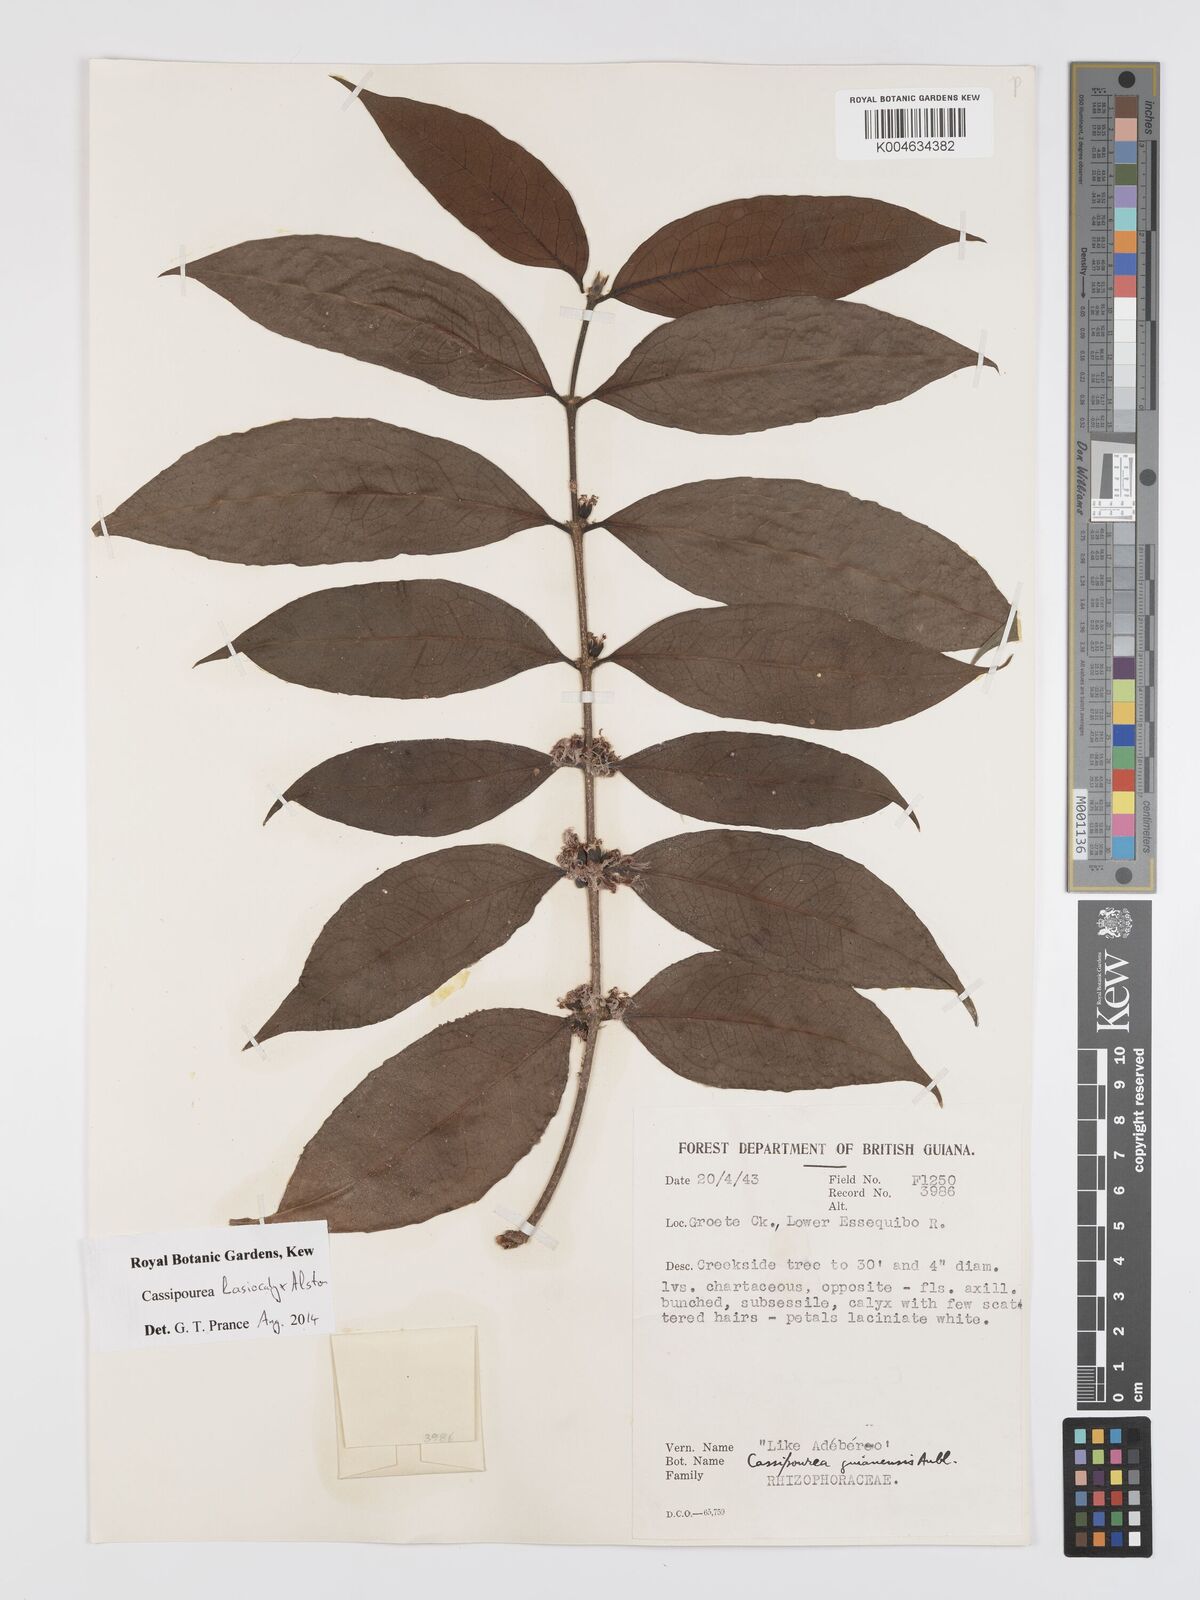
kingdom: Plantae
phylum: Tracheophyta
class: Magnoliopsida
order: Malpighiales
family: Rhizophoraceae
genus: Cassipourea
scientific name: Cassipourea lasiocalyx
